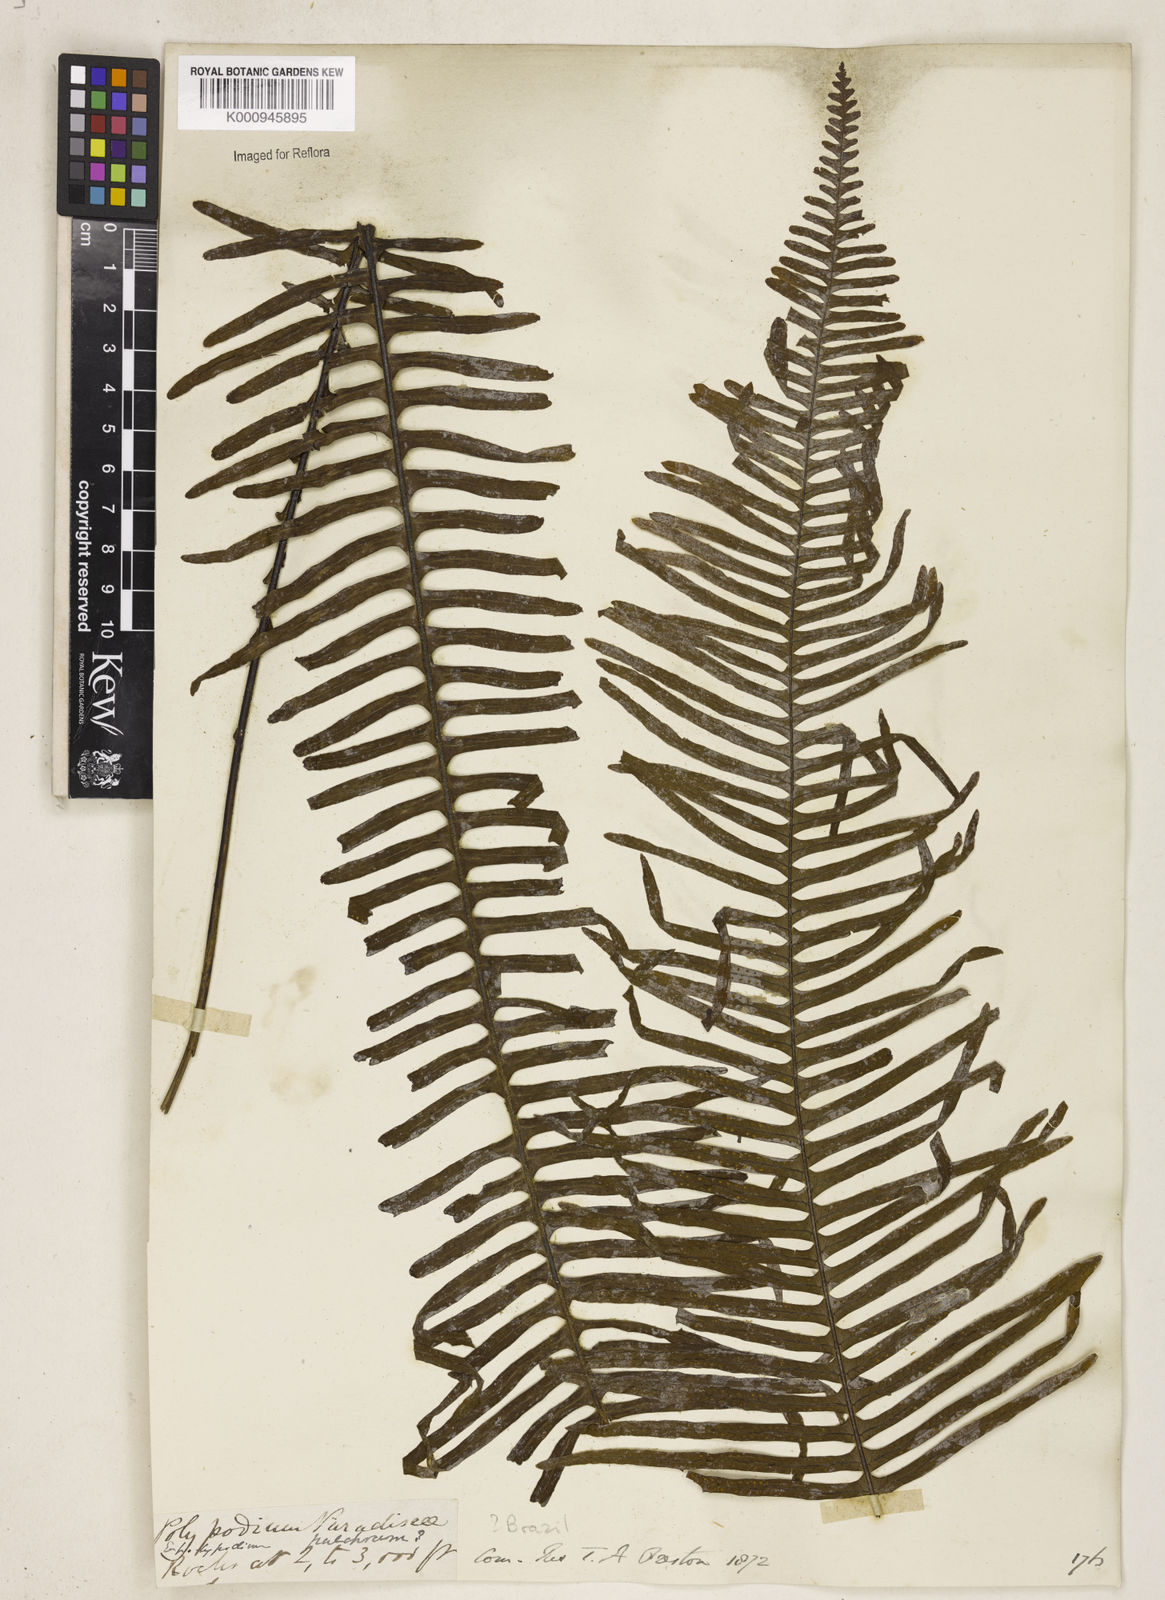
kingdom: Plantae
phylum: Tracheophyta
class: Polypodiopsida
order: Polypodiales
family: Polypodiaceae
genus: Pecluma
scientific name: Pecluma paradiseae
